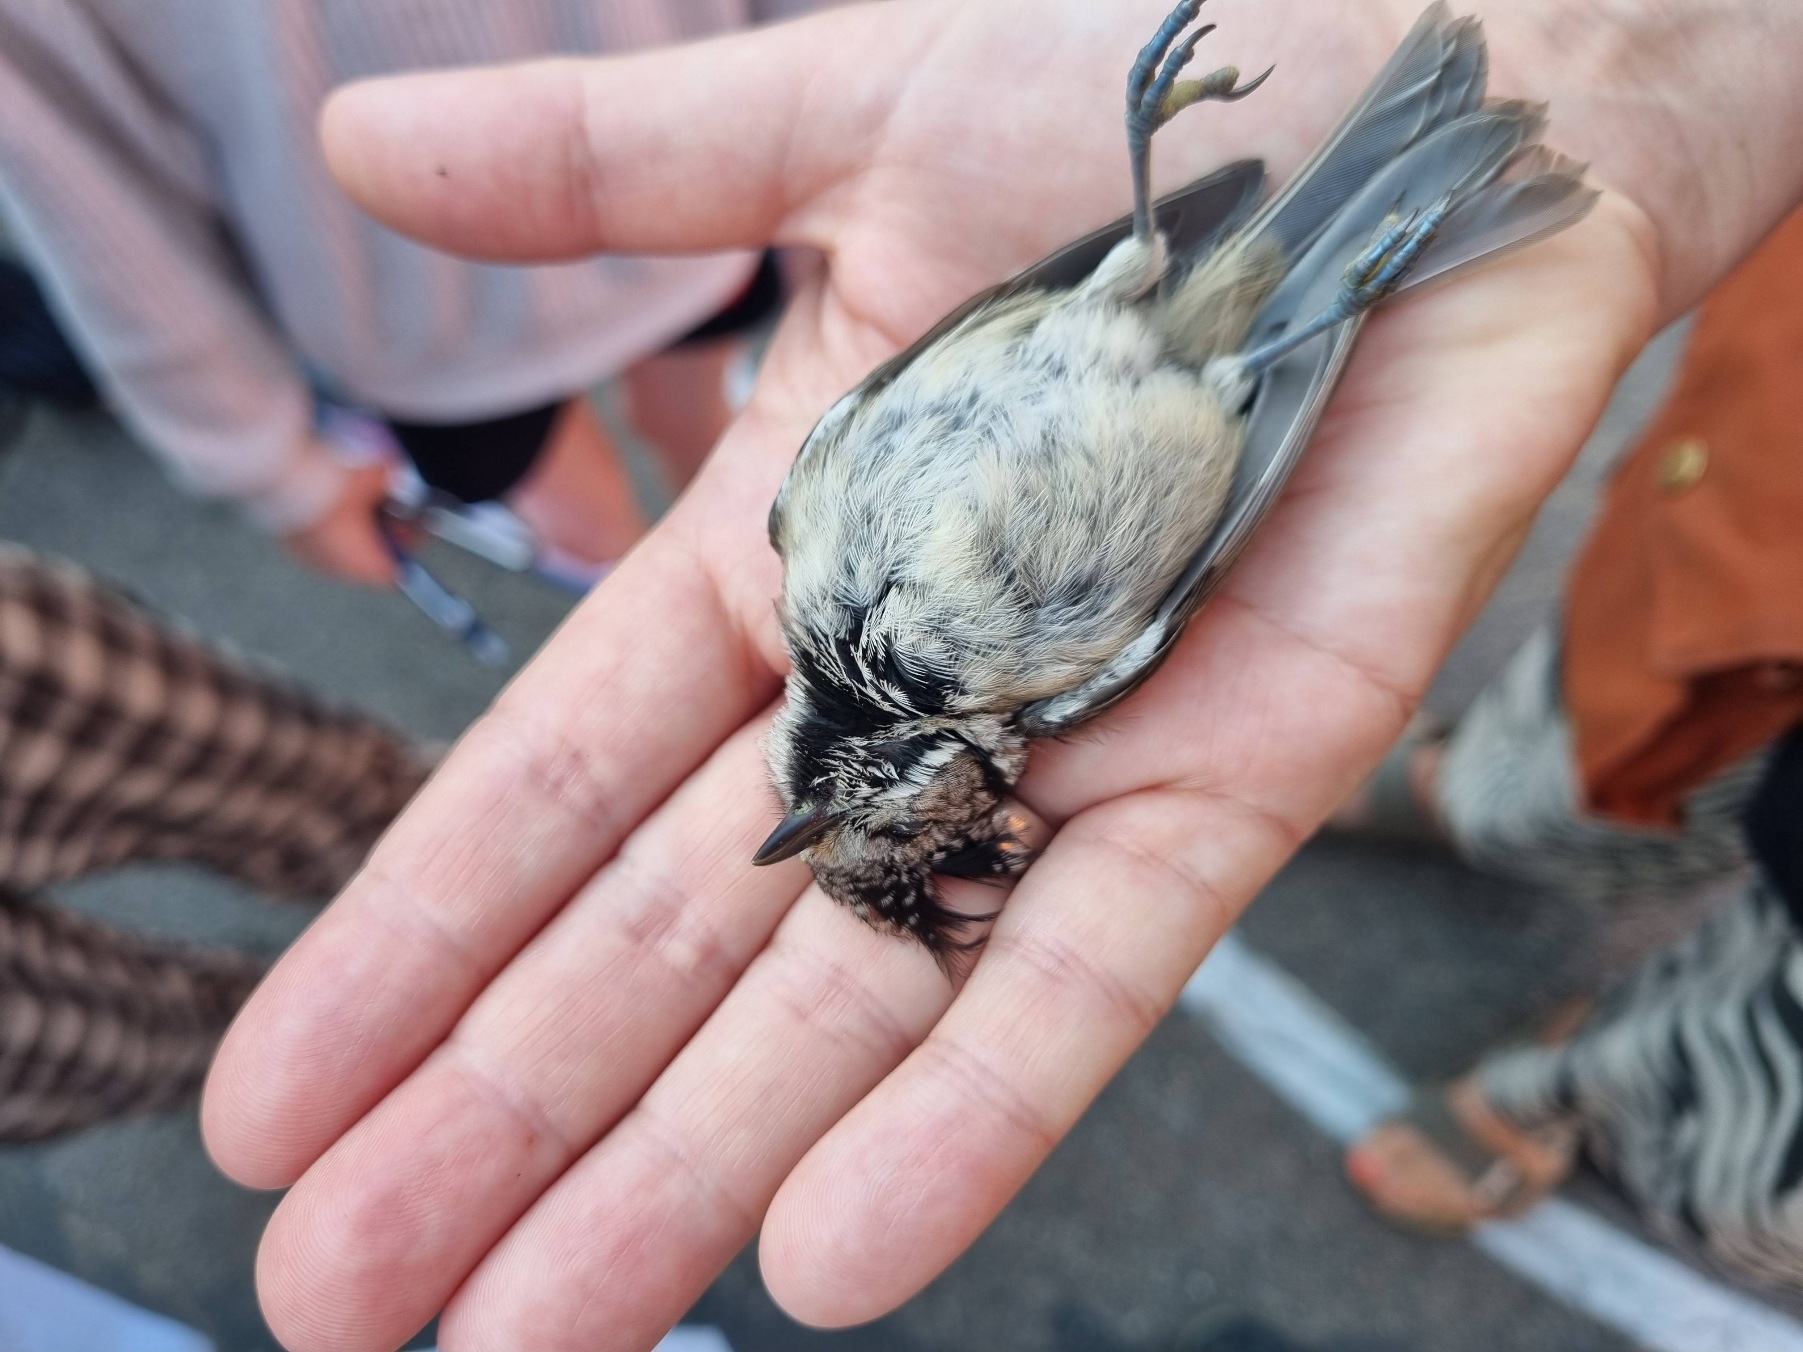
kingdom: Animalia
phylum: Chordata
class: Aves
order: Passeriformes
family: Paridae
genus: Lophophanes
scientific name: Lophophanes cristatus
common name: Topmejse
